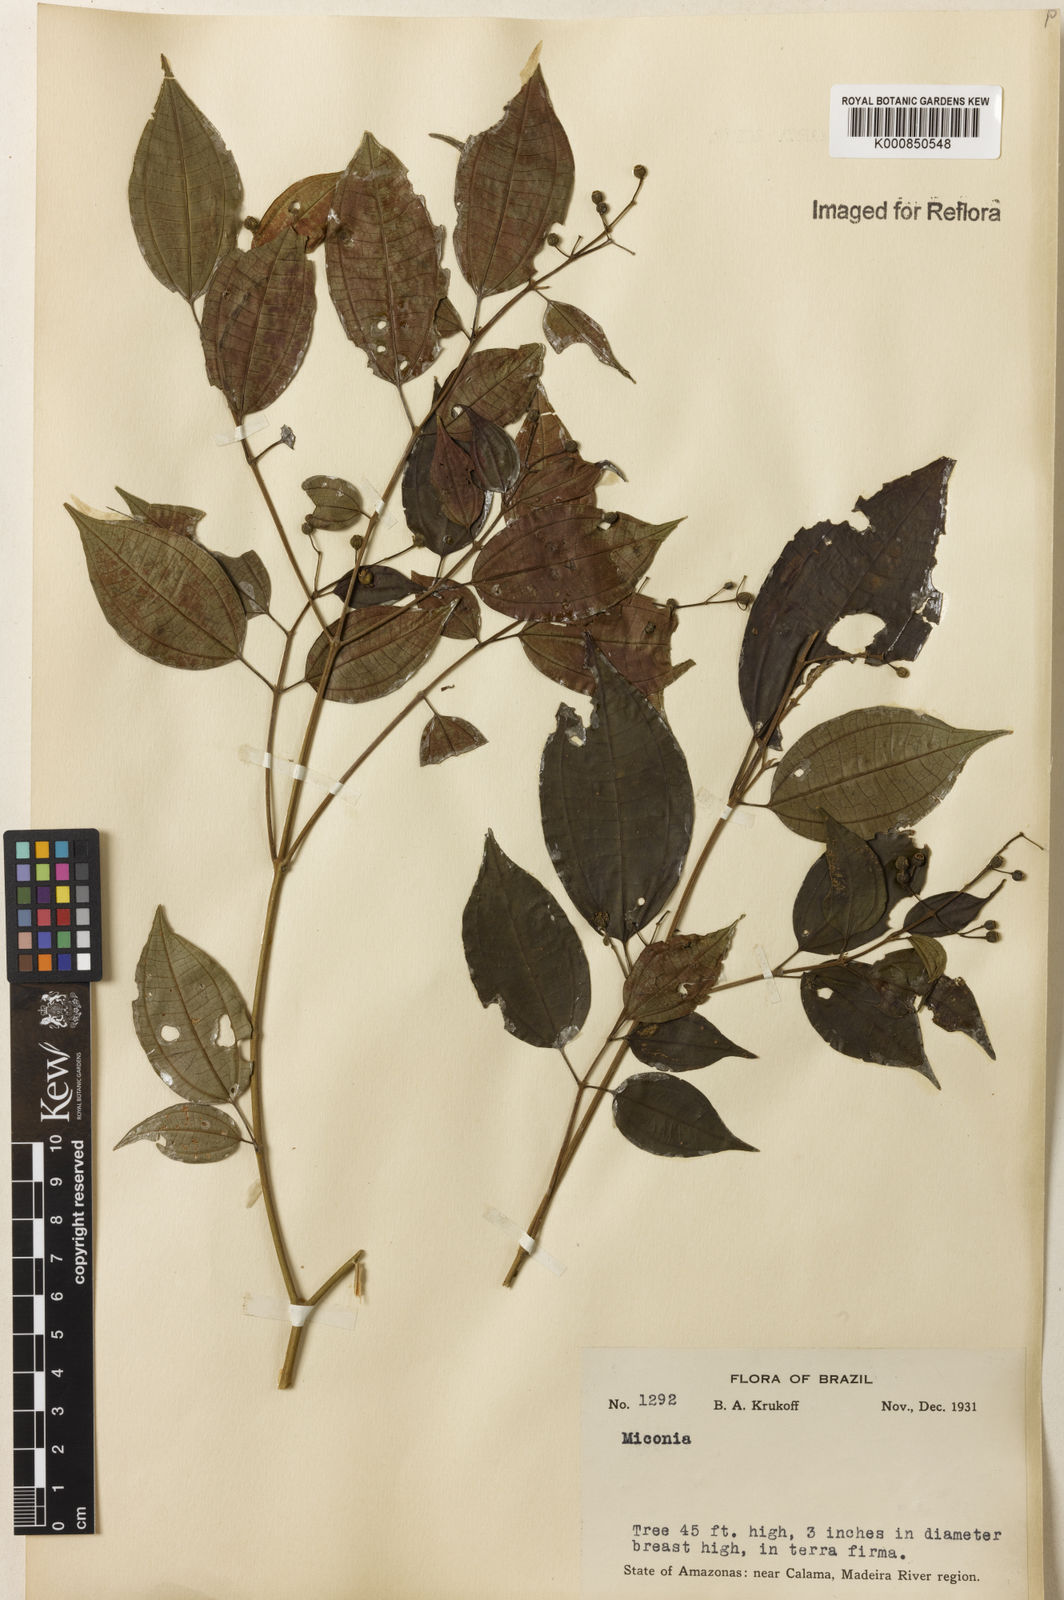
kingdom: Plantae
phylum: Tracheophyta
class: Magnoliopsida
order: Myrtales
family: Melastomataceae
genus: Miconia
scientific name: Miconia
